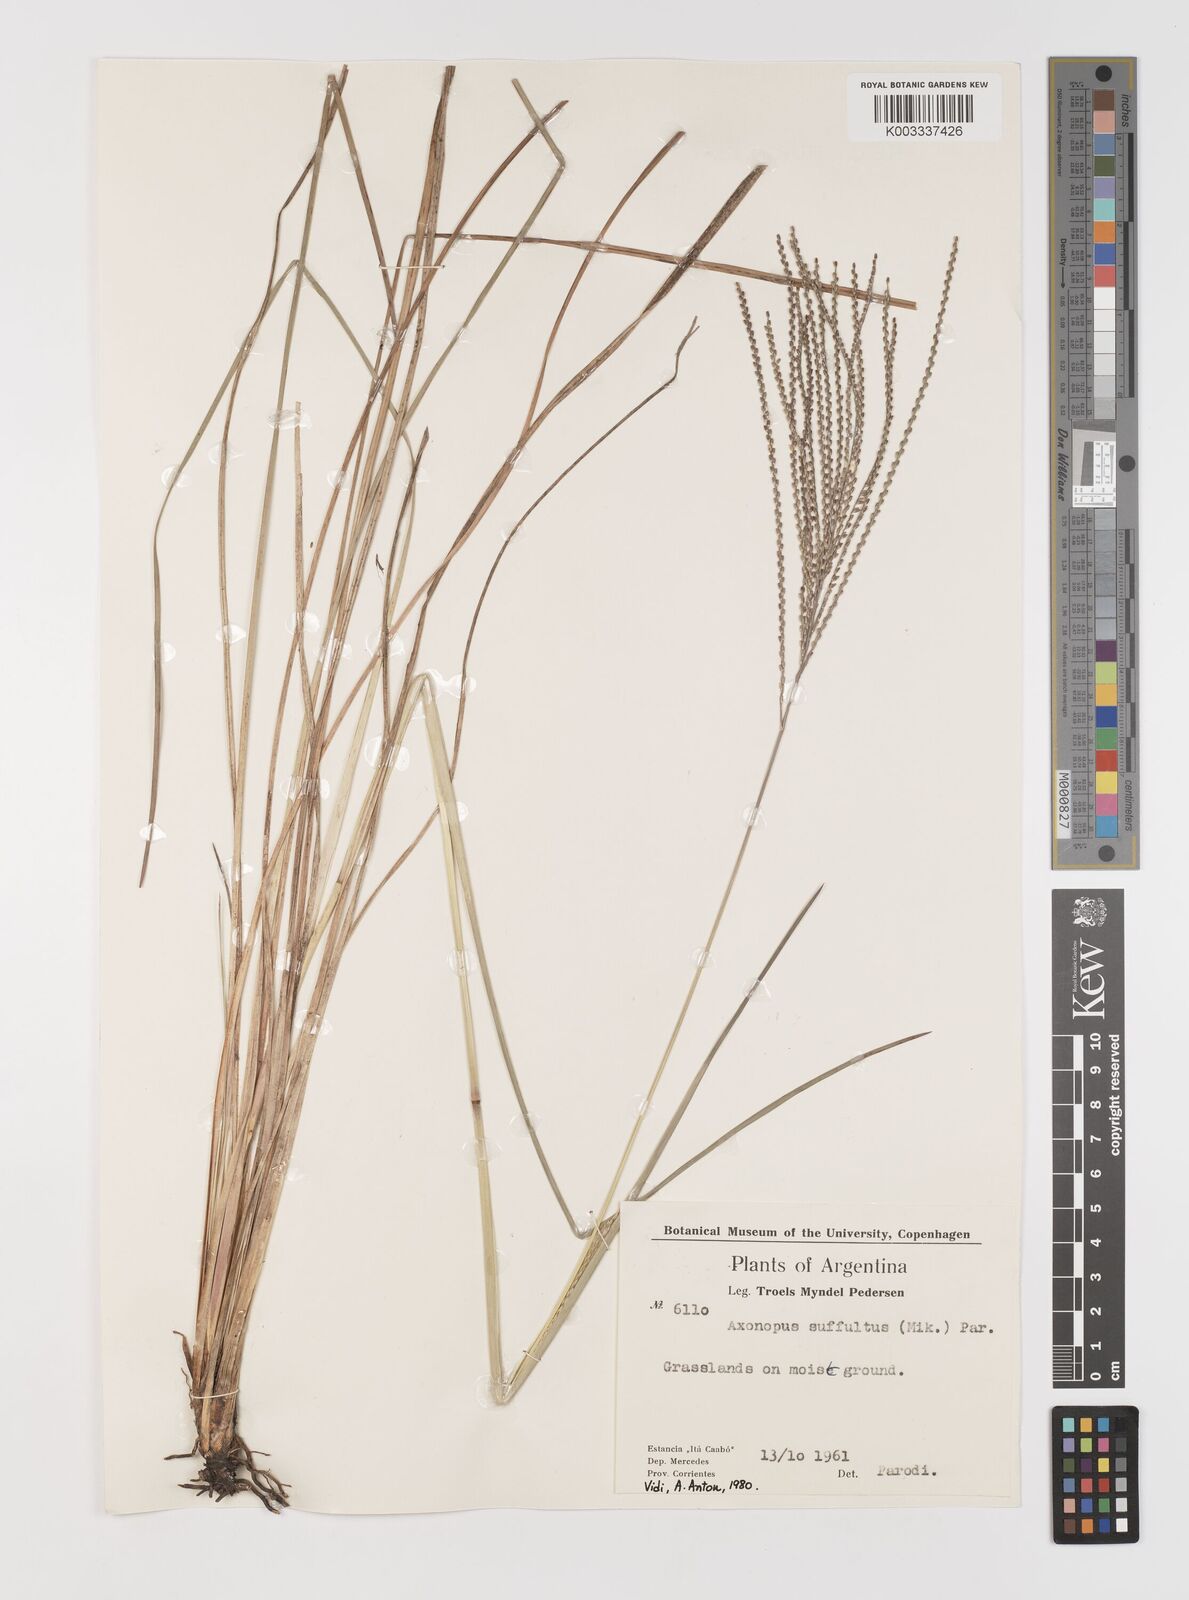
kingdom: Plantae
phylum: Tracheophyta
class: Liliopsida
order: Poales
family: Poaceae
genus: Axonopus
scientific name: Axonopus suffultus
